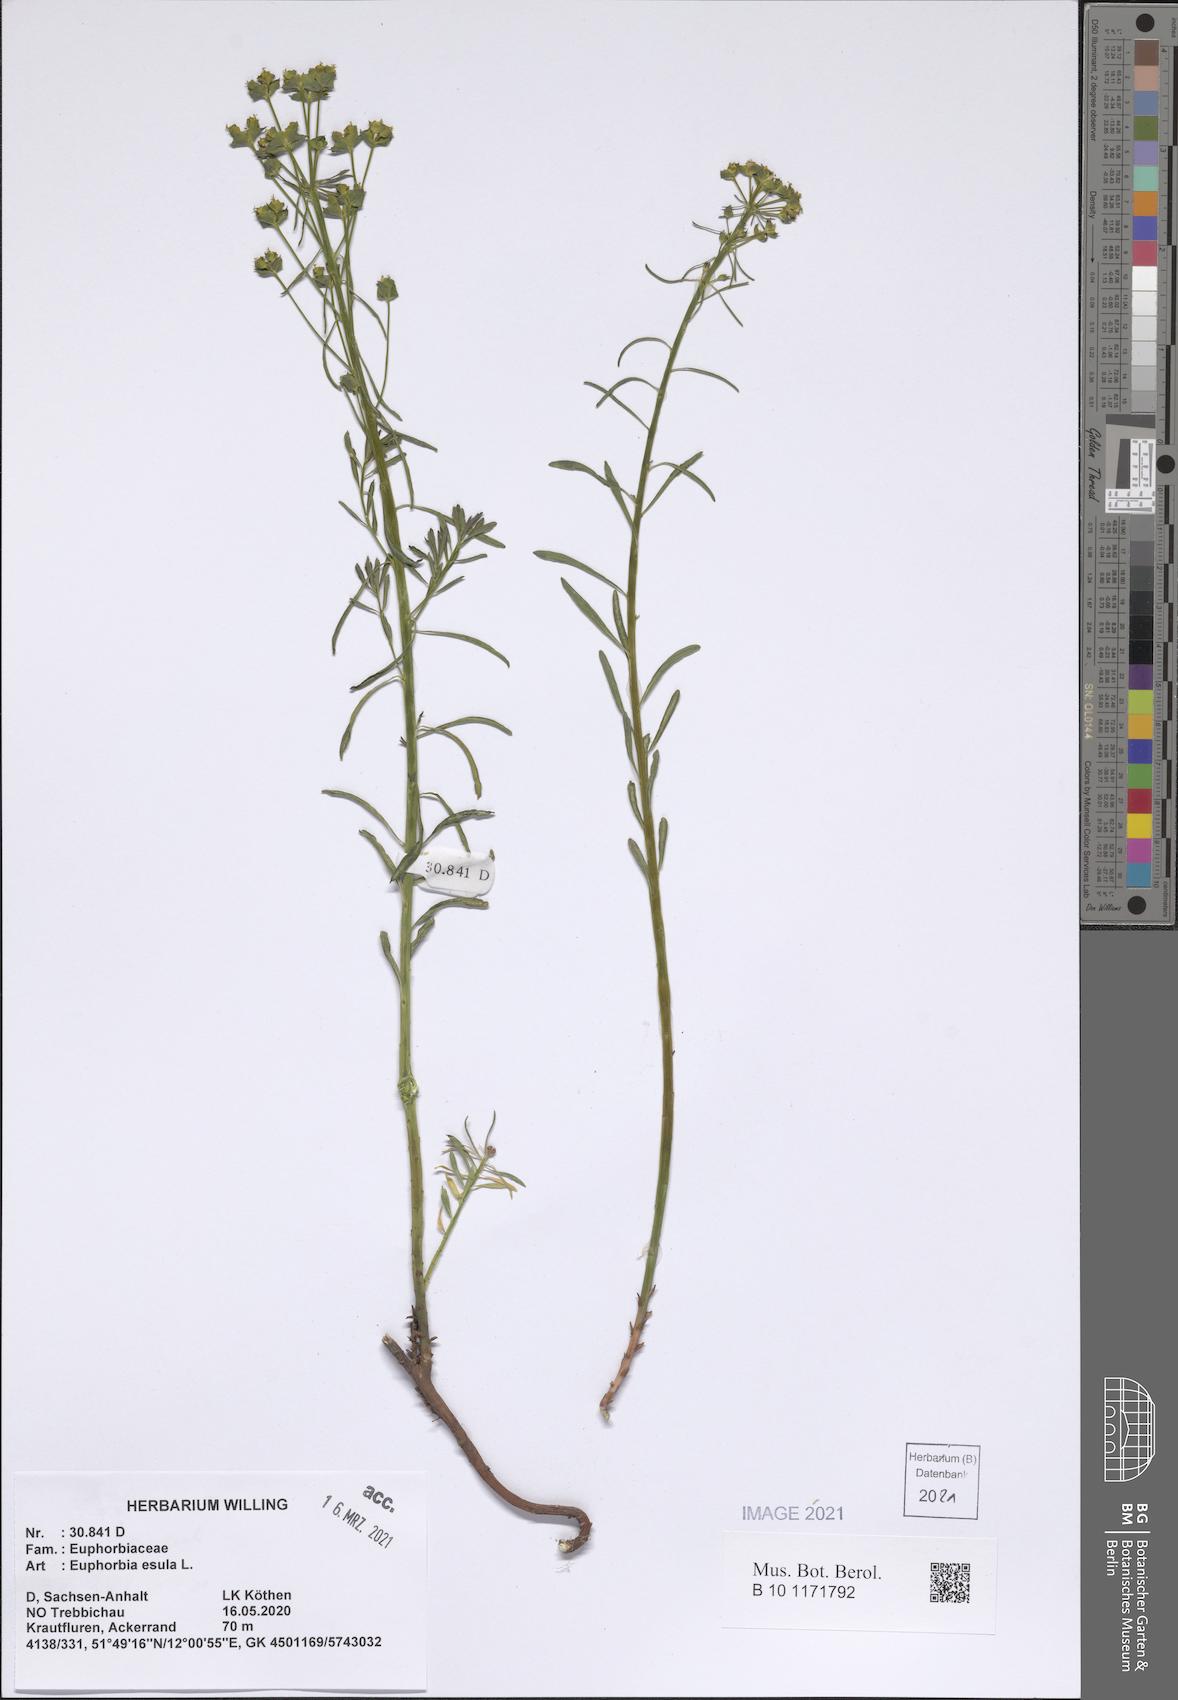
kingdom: Plantae
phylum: Tracheophyta
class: Magnoliopsida
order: Malpighiales
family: Euphorbiaceae
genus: Euphorbia
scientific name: Euphorbia esula
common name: Leafy spurge
